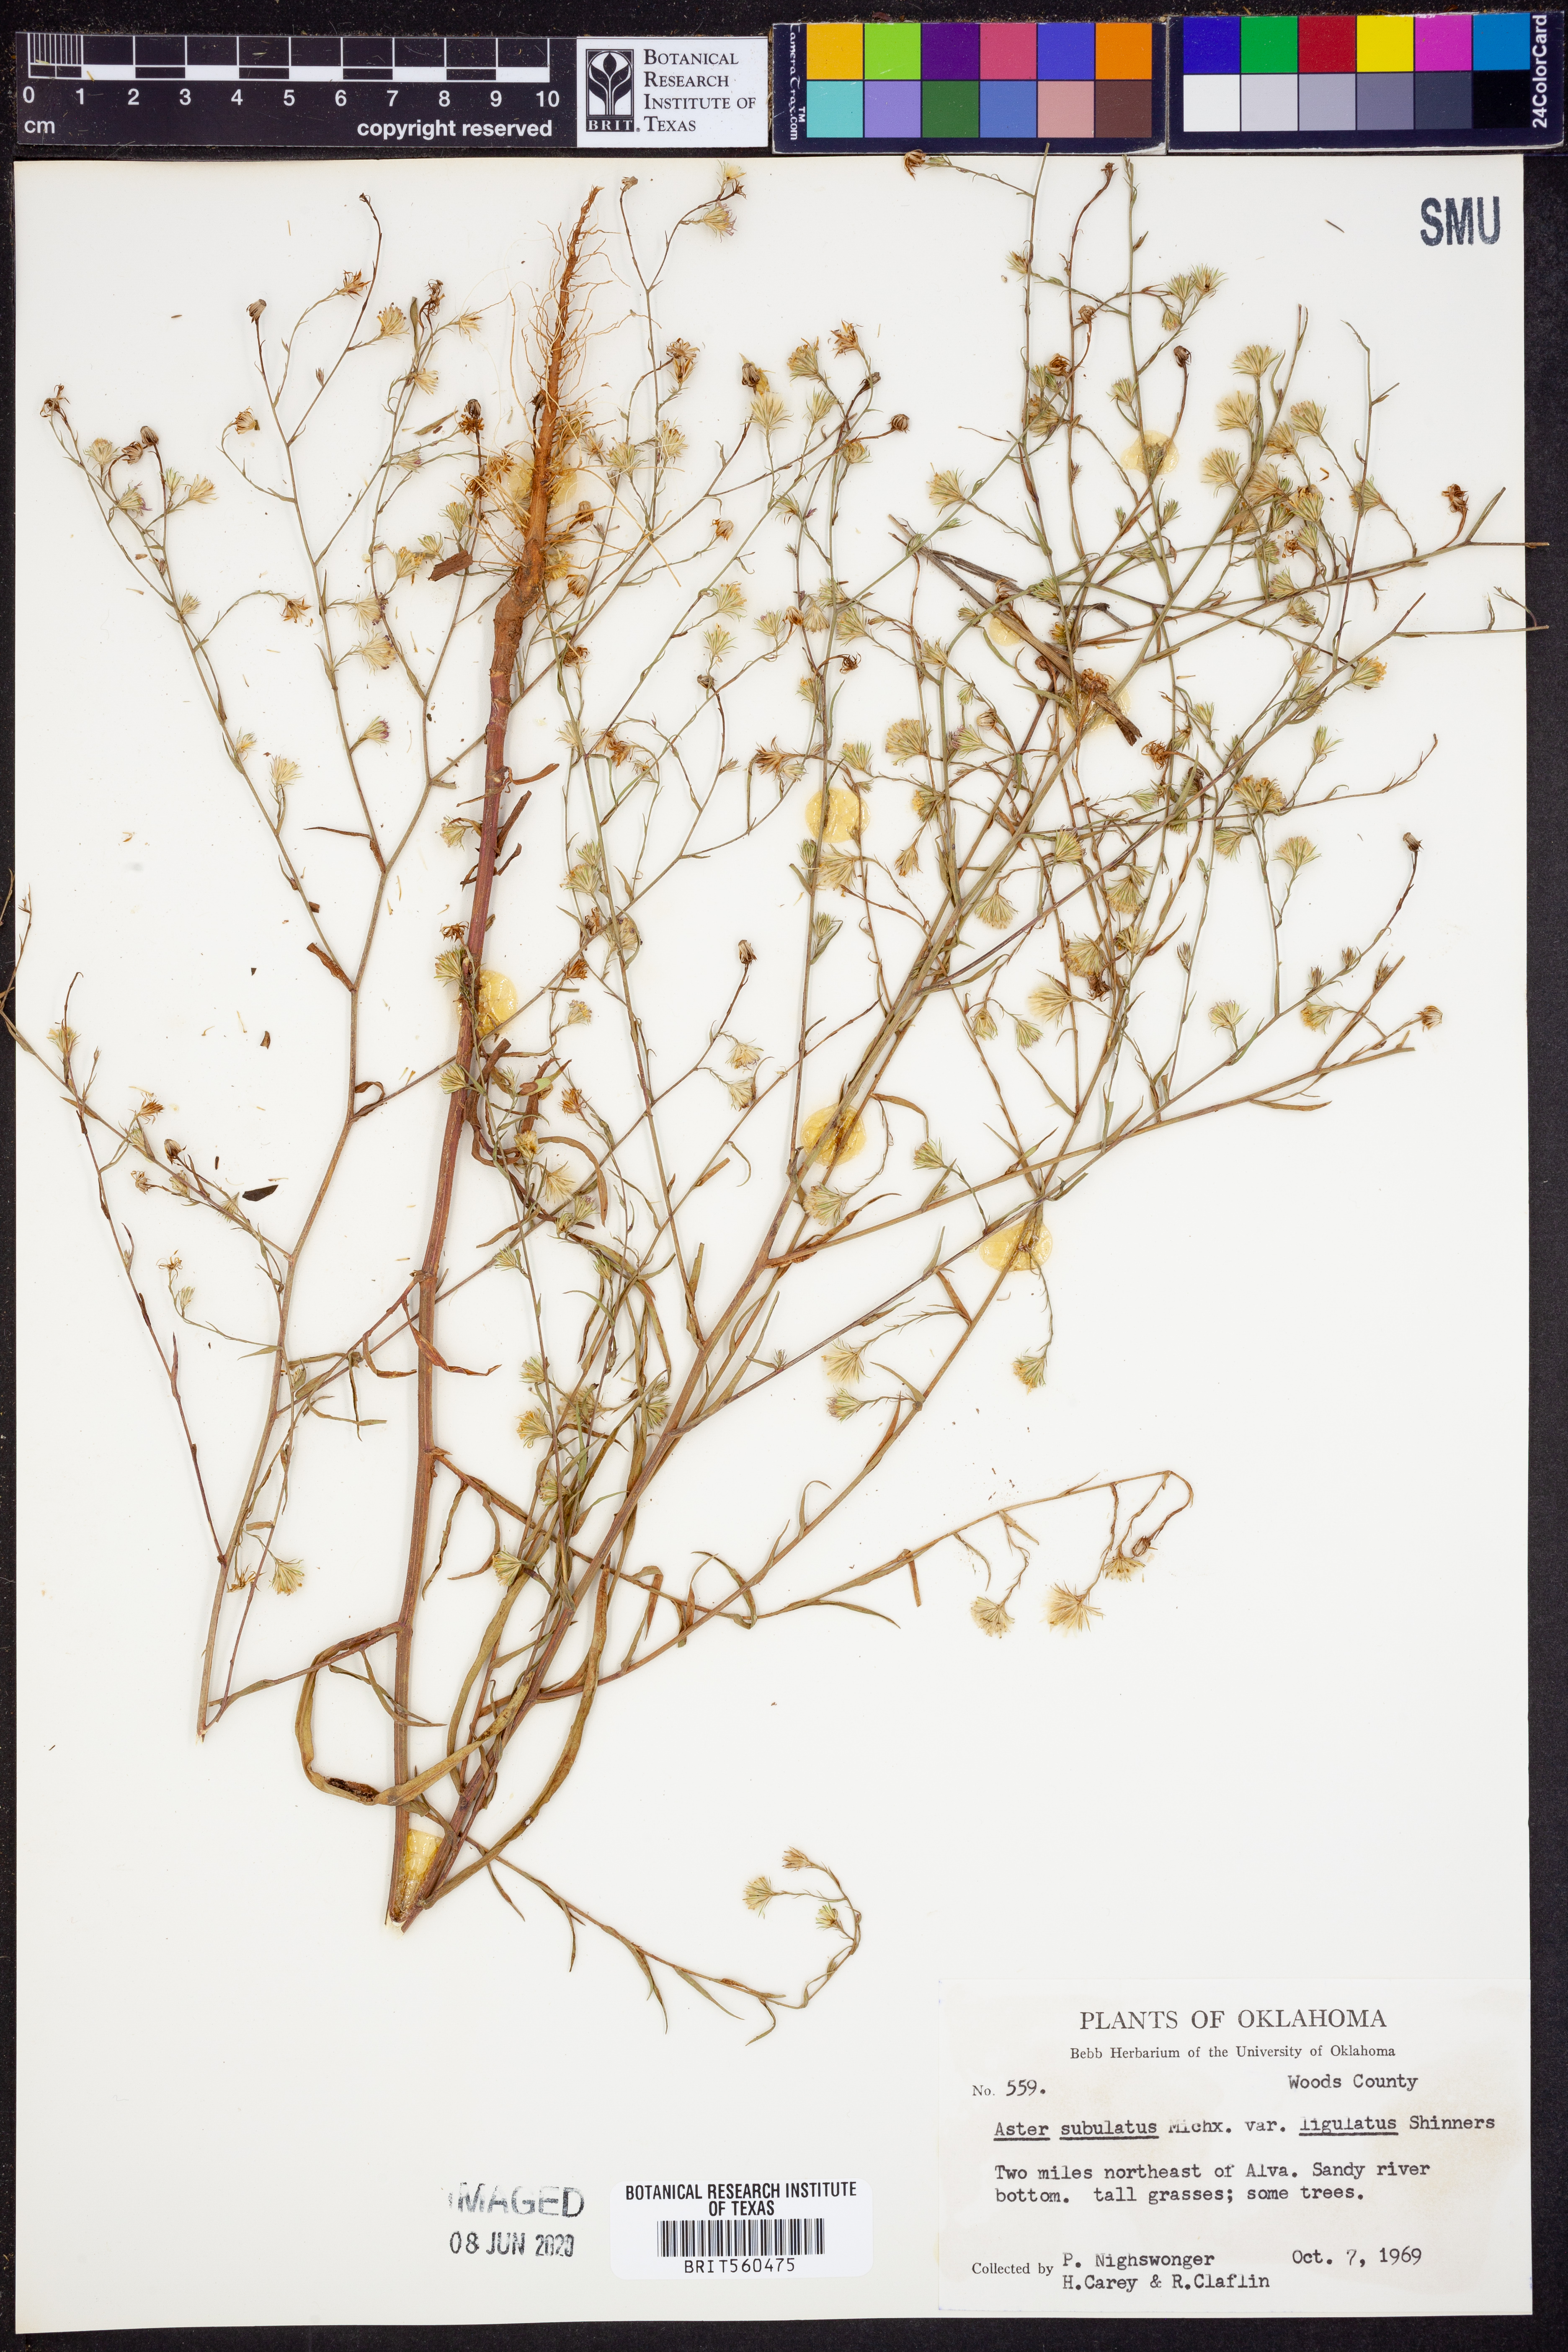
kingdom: Plantae
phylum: Tracheophyta
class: Magnoliopsida
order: Asterales
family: Asteraceae
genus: Symphyotrichum
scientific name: Symphyotrichum divaricatum
